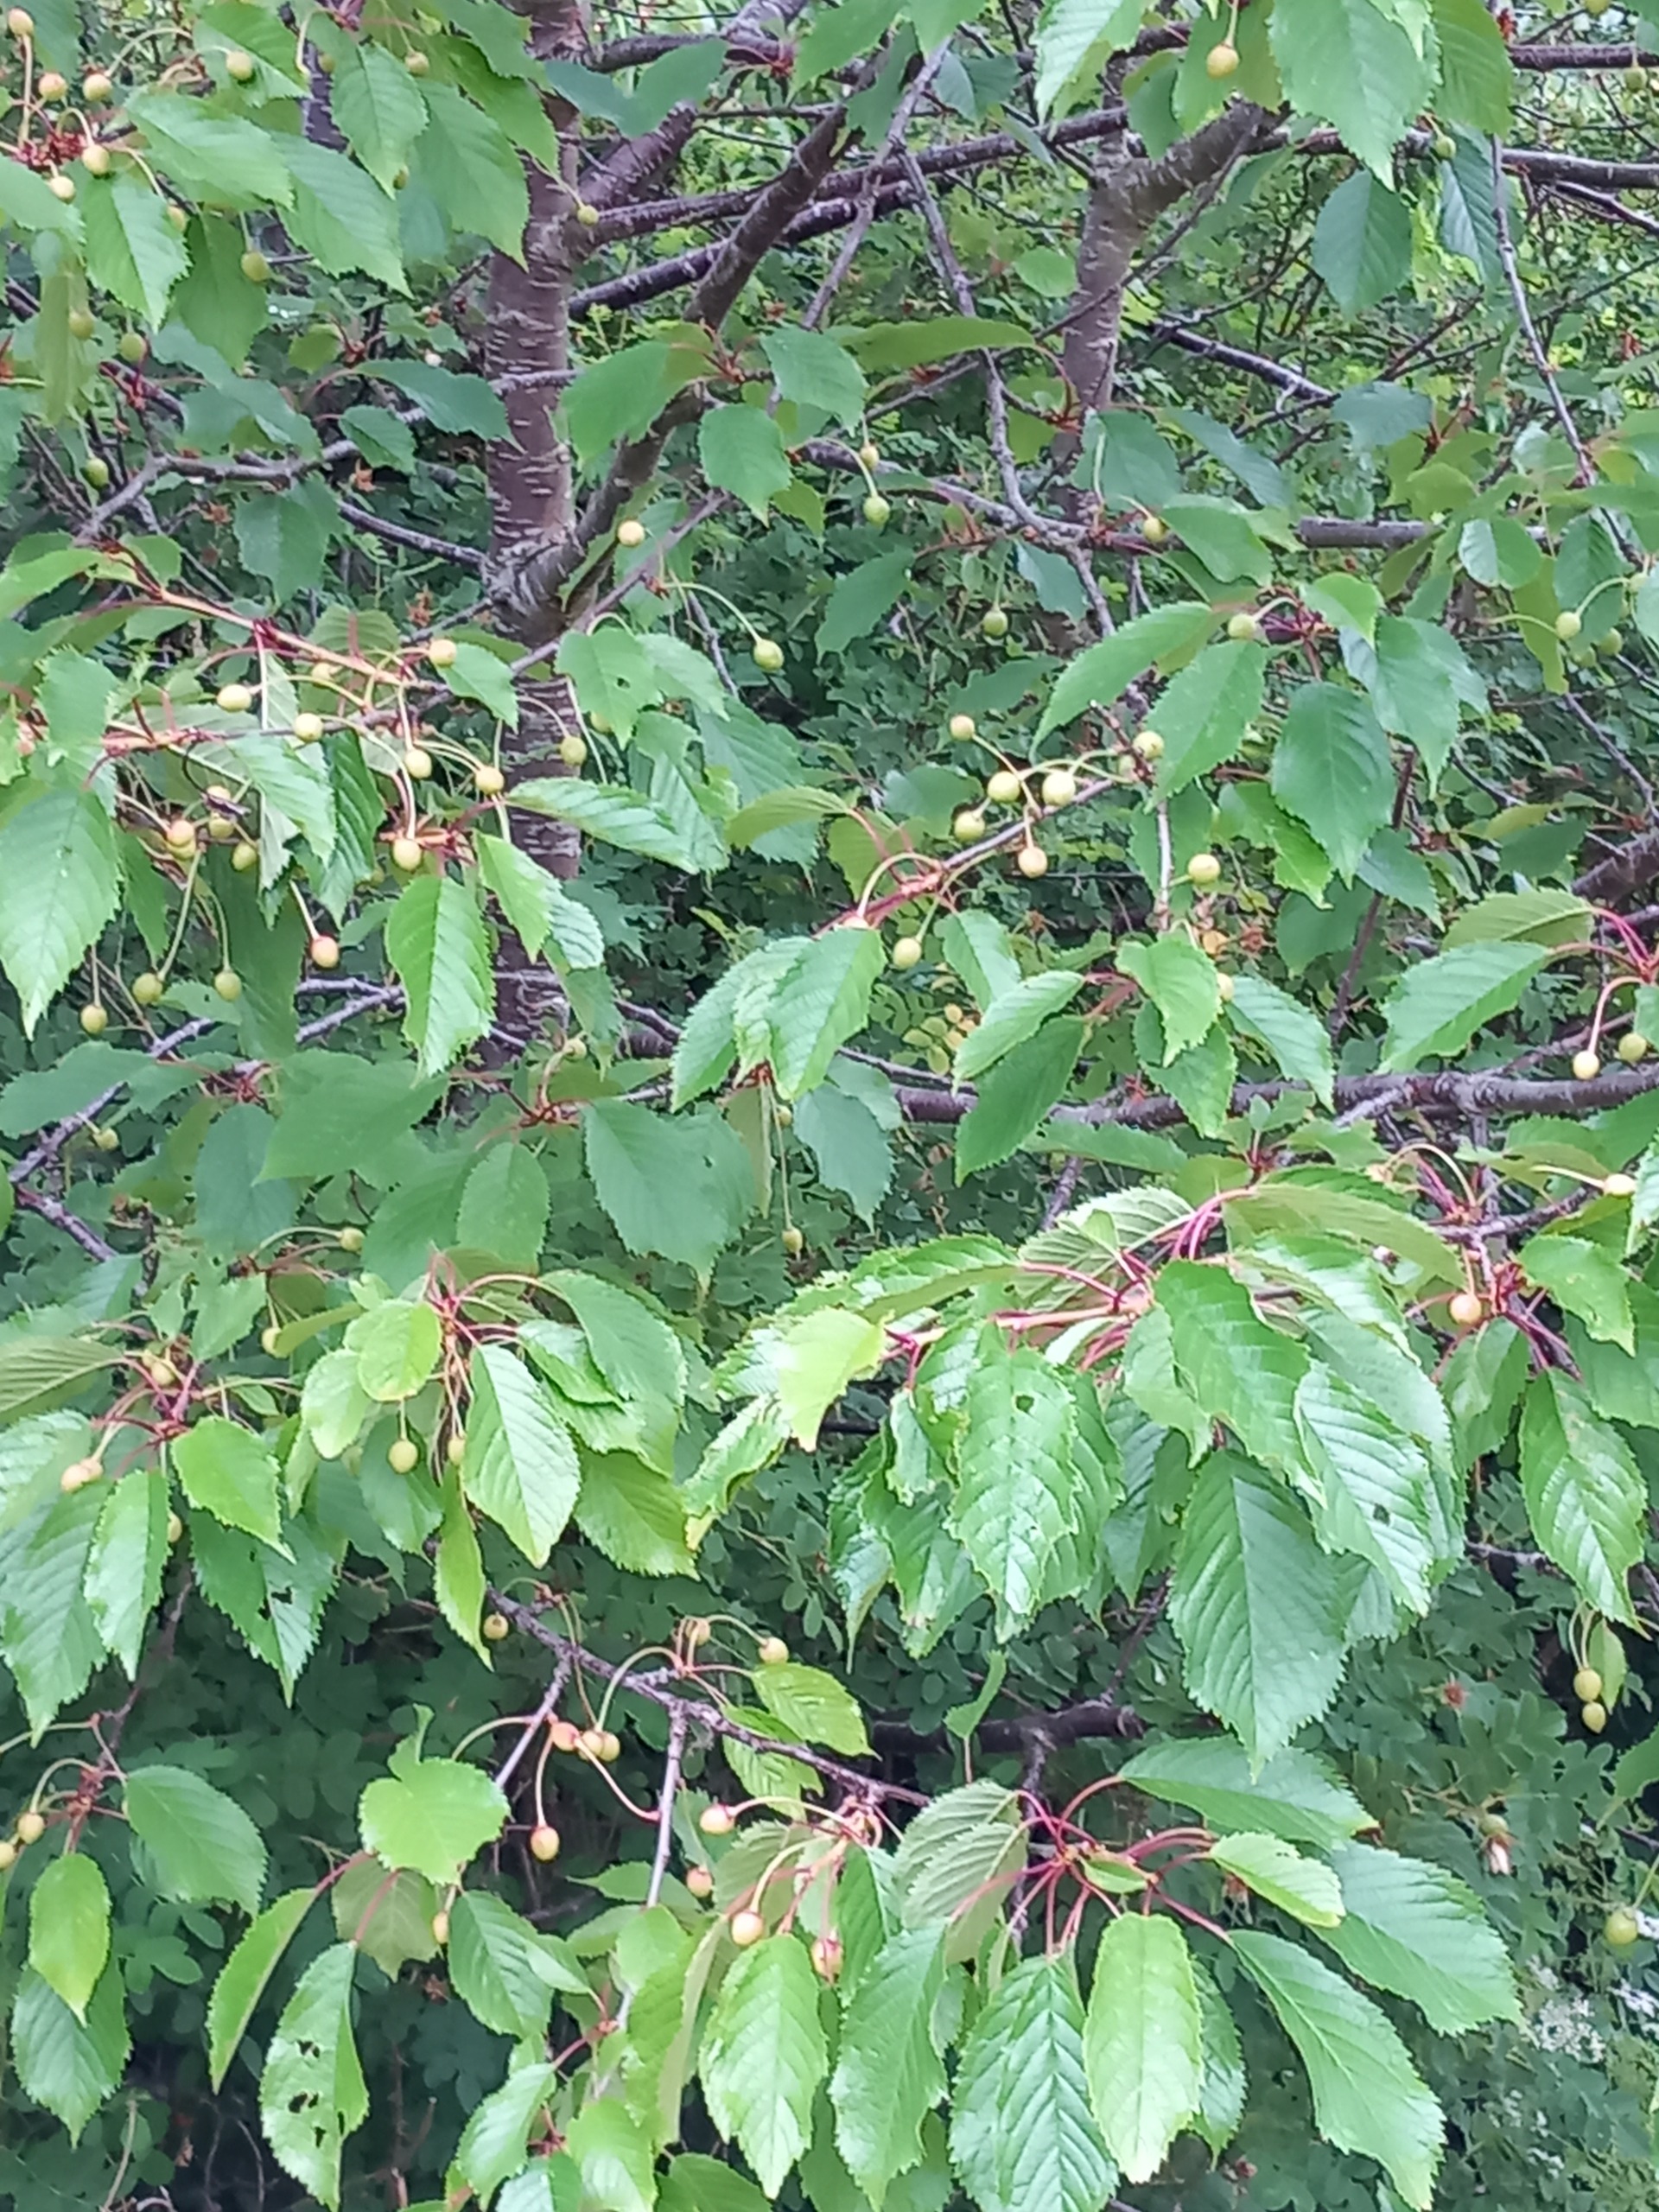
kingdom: Plantae
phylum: Tracheophyta
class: Magnoliopsida
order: Rosales
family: Rosaceae
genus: Prunus
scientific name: Prunus avium
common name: Fugle-kirsebær
